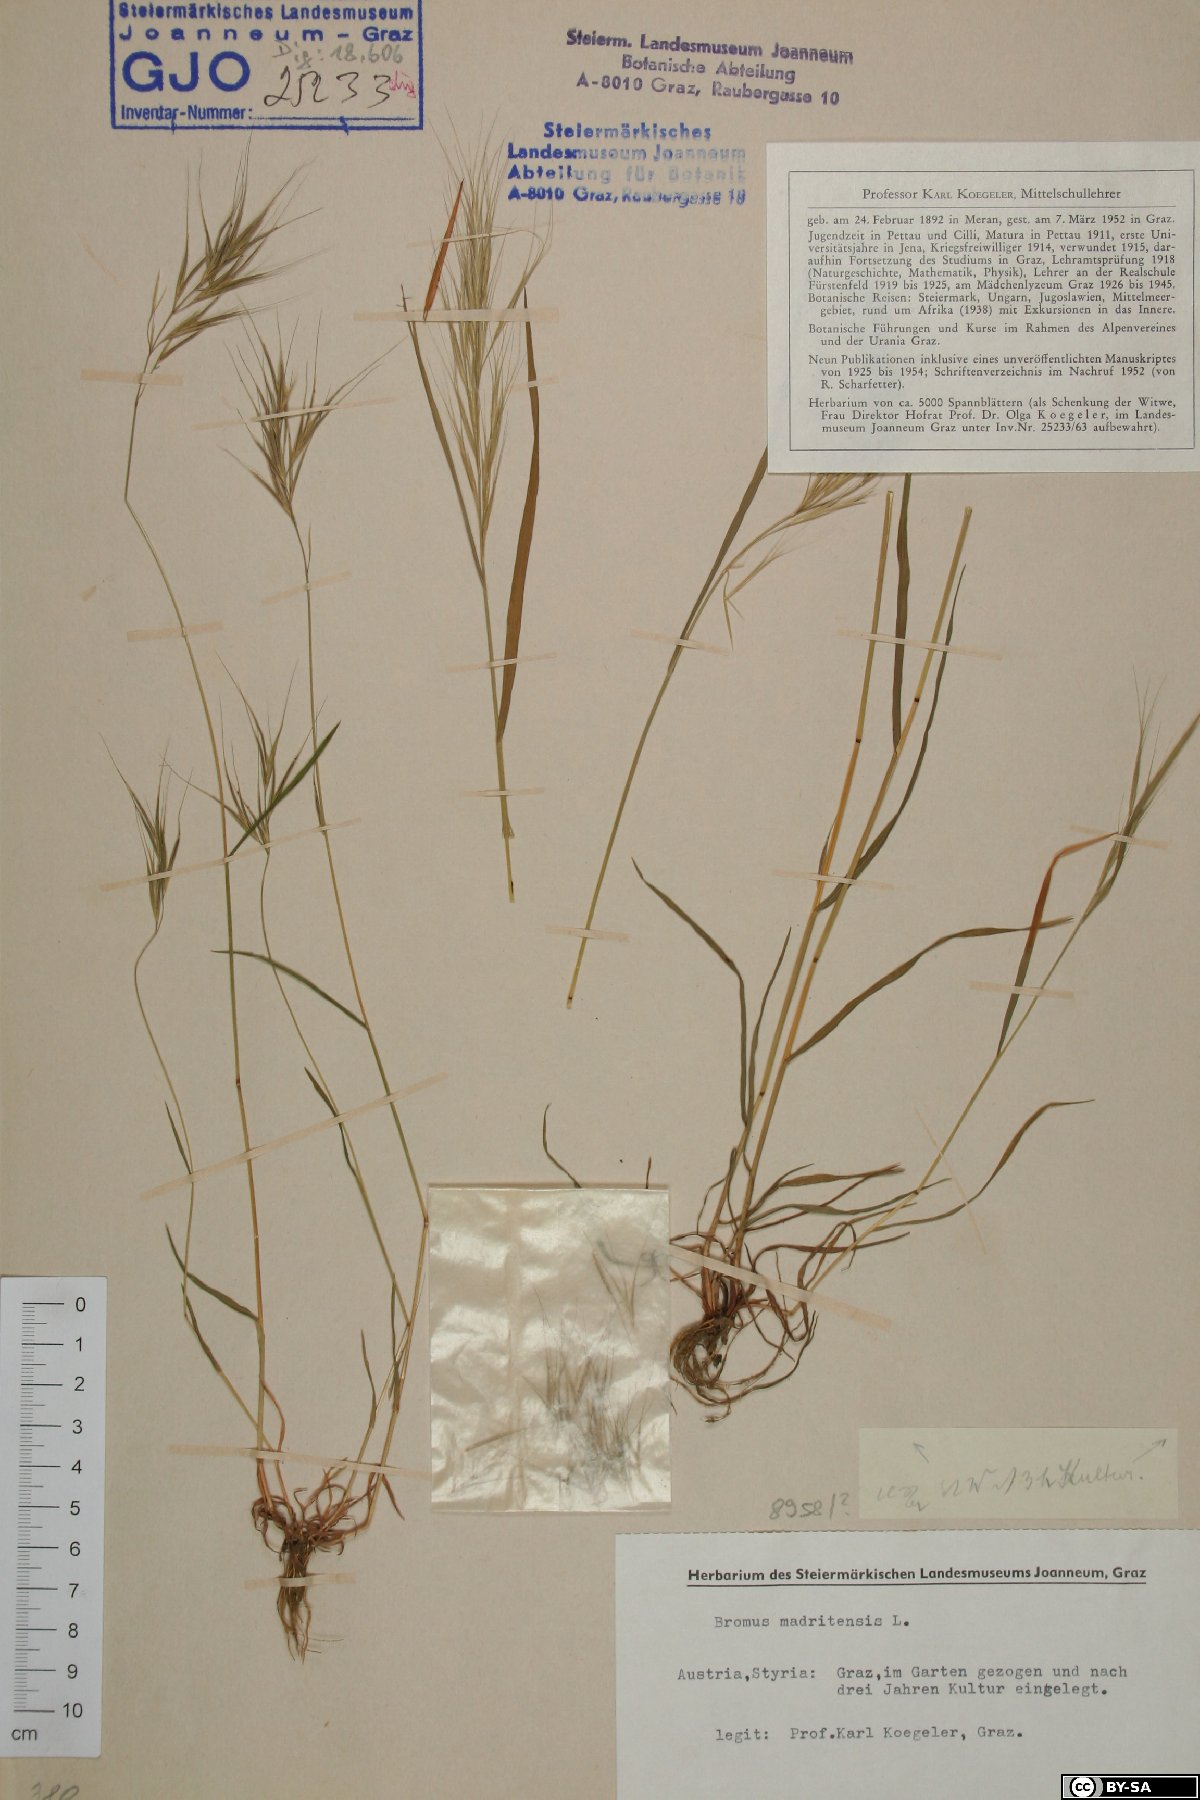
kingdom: Plantae
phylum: Tracheophyta
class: Liliopsida
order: Poales
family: Poaceae
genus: Bromus
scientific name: Bromus madritensis
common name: Compact brome
